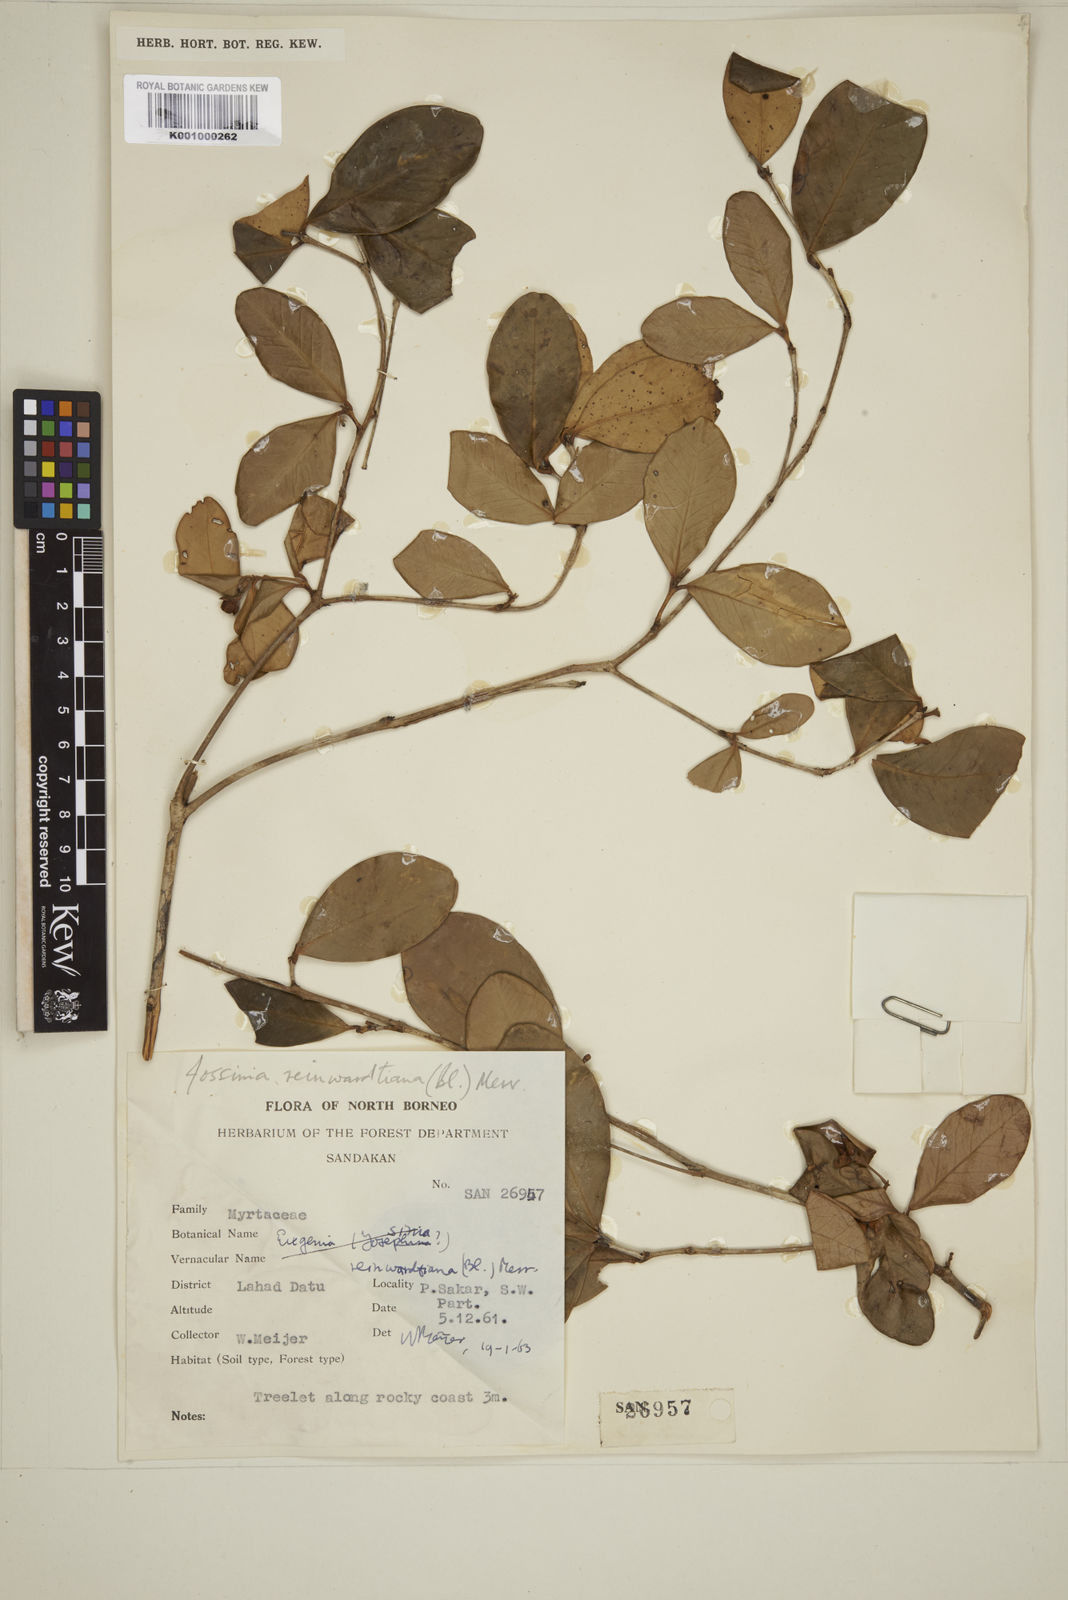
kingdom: Plantae
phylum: Tracheophyta
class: Magnoliopsida
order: Myrtales
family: Myrtaceae
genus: Eugenia
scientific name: Eugenia reinwardtiana
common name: Cedar bay-cherry
